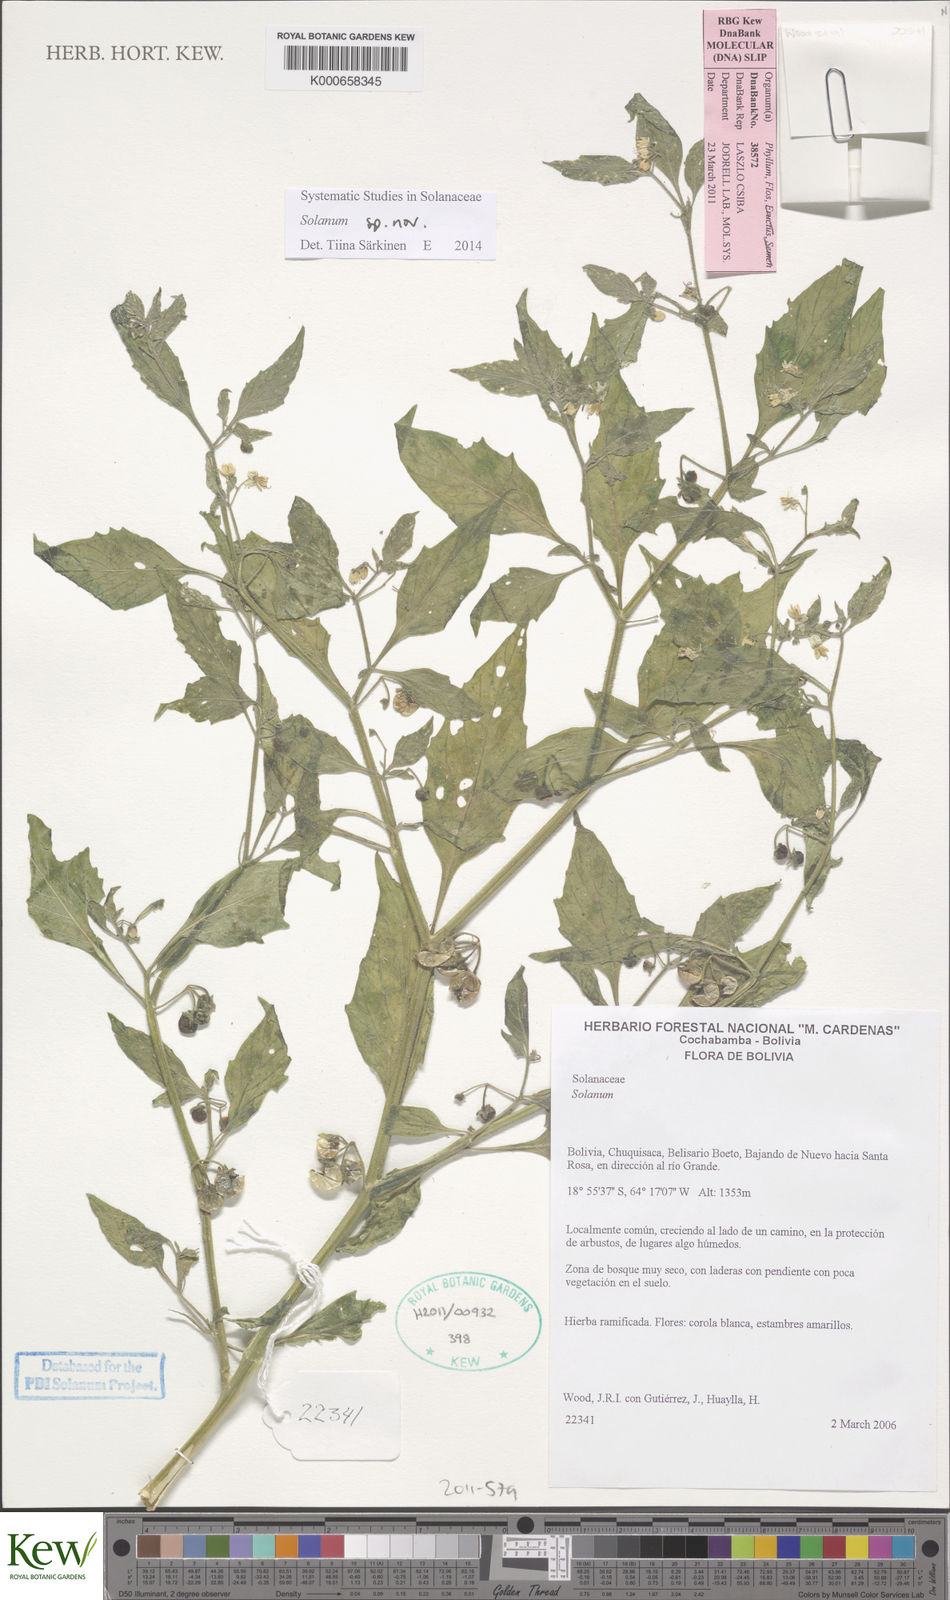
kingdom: Plantae
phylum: Tracheophyta
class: Magnoliopsida
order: Solanales
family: Solanaceae
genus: Solanum
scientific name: Solanum
